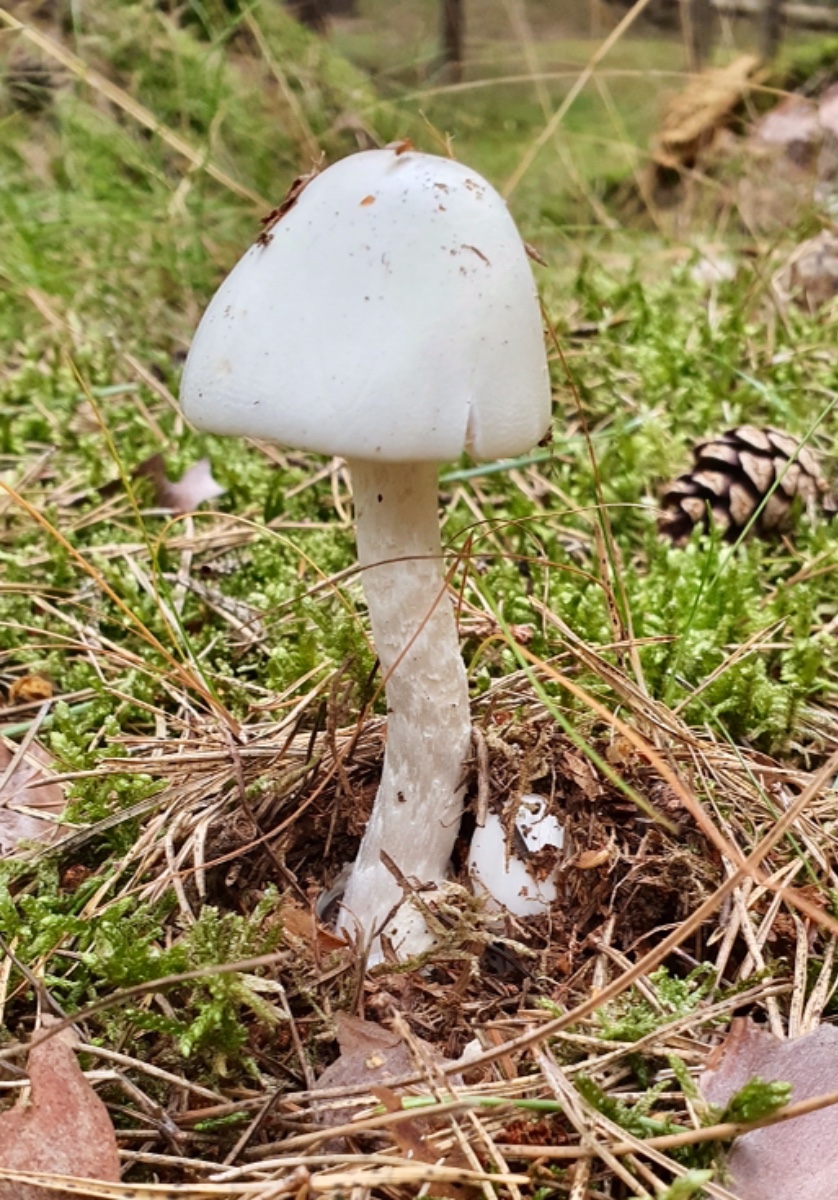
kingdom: Fungi
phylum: Basidiomycota
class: Agaricomycetes
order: Agaricales
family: Amanitaceae
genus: Amanita
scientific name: Amanita virosa
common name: snehvid fluesvamp
